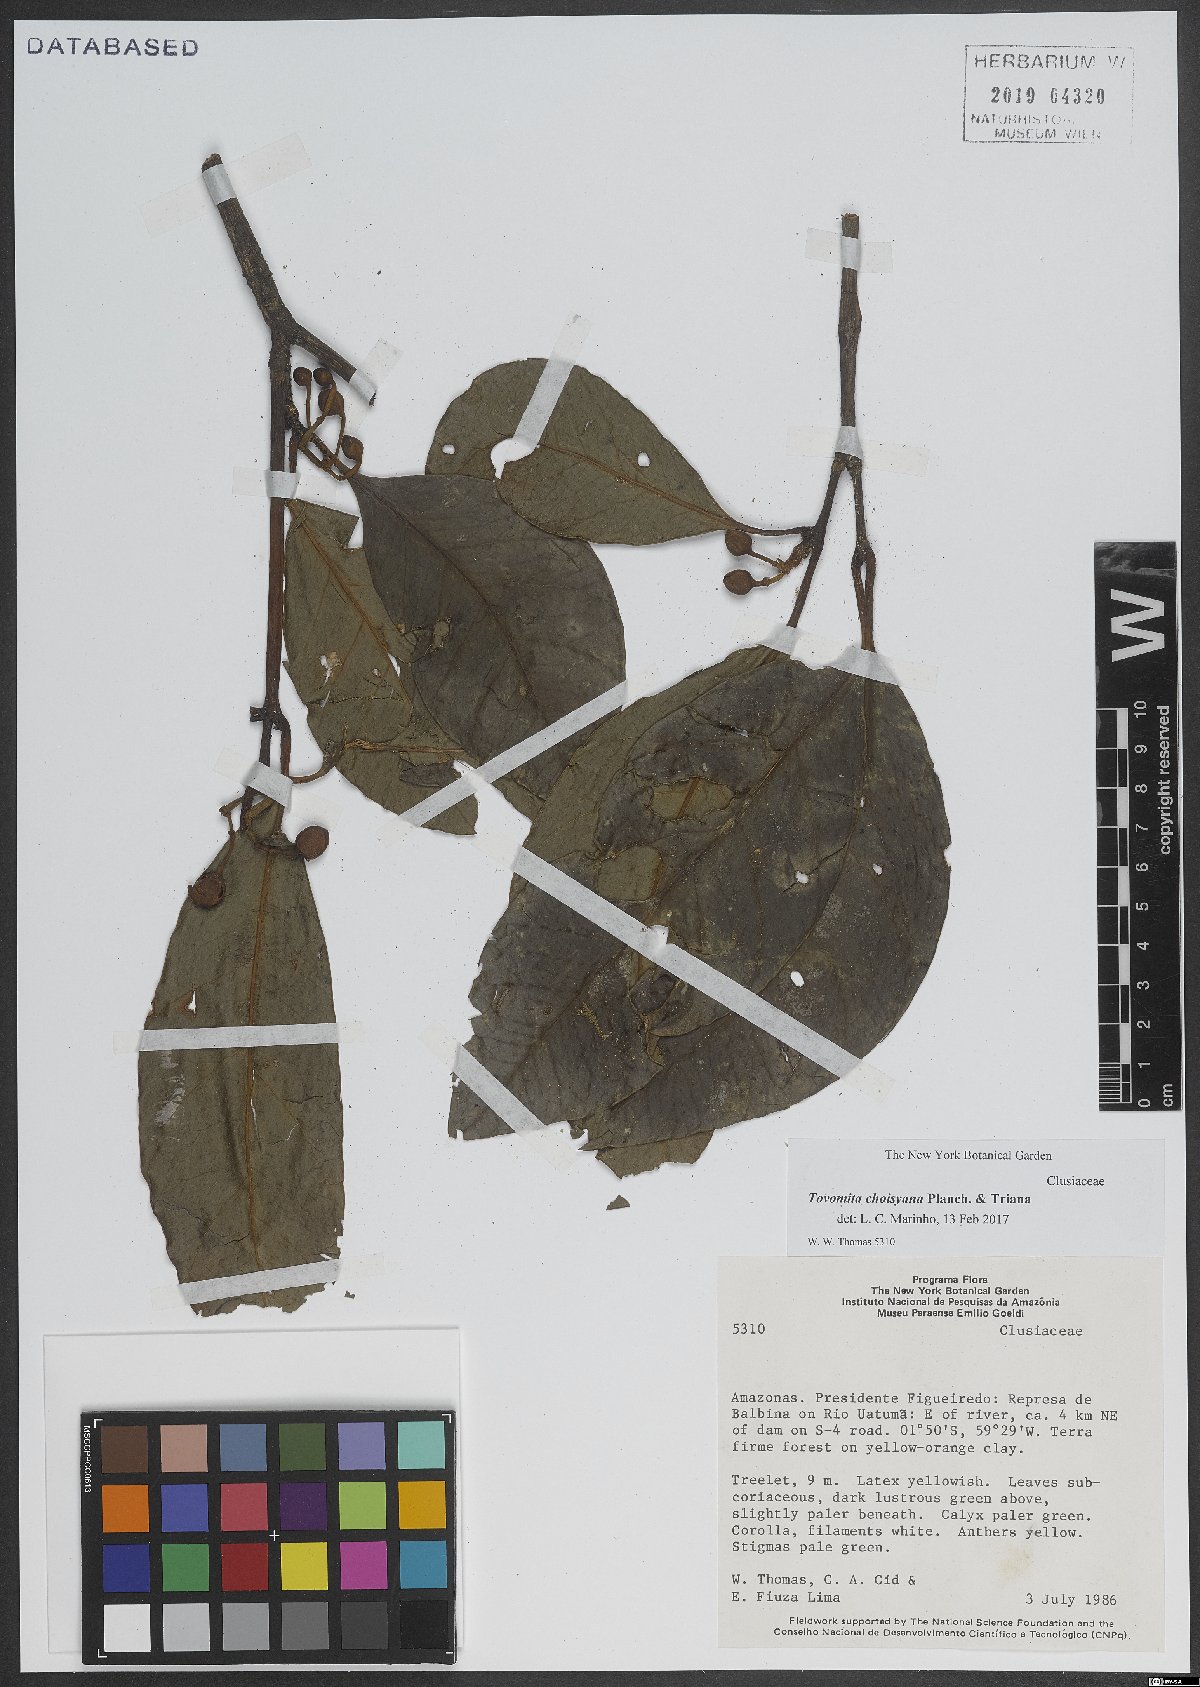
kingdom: Plantae
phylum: Tracheophyta
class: Magnoliopsida
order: Malpighiales
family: Clusiaceae
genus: Tovomita
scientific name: Tovomita choisyana
